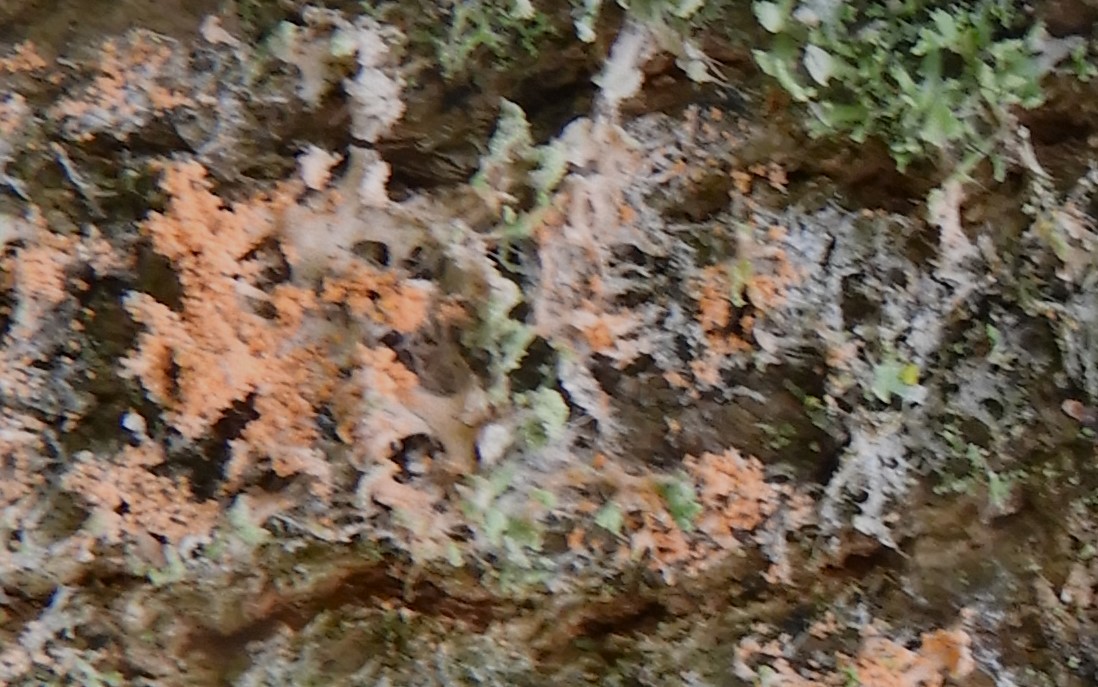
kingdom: Fungi
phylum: Basidiomycota
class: Agaricomycetes
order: Corticiales
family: Corticiaceae
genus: Erythricium
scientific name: Erythricium aurantiacum
